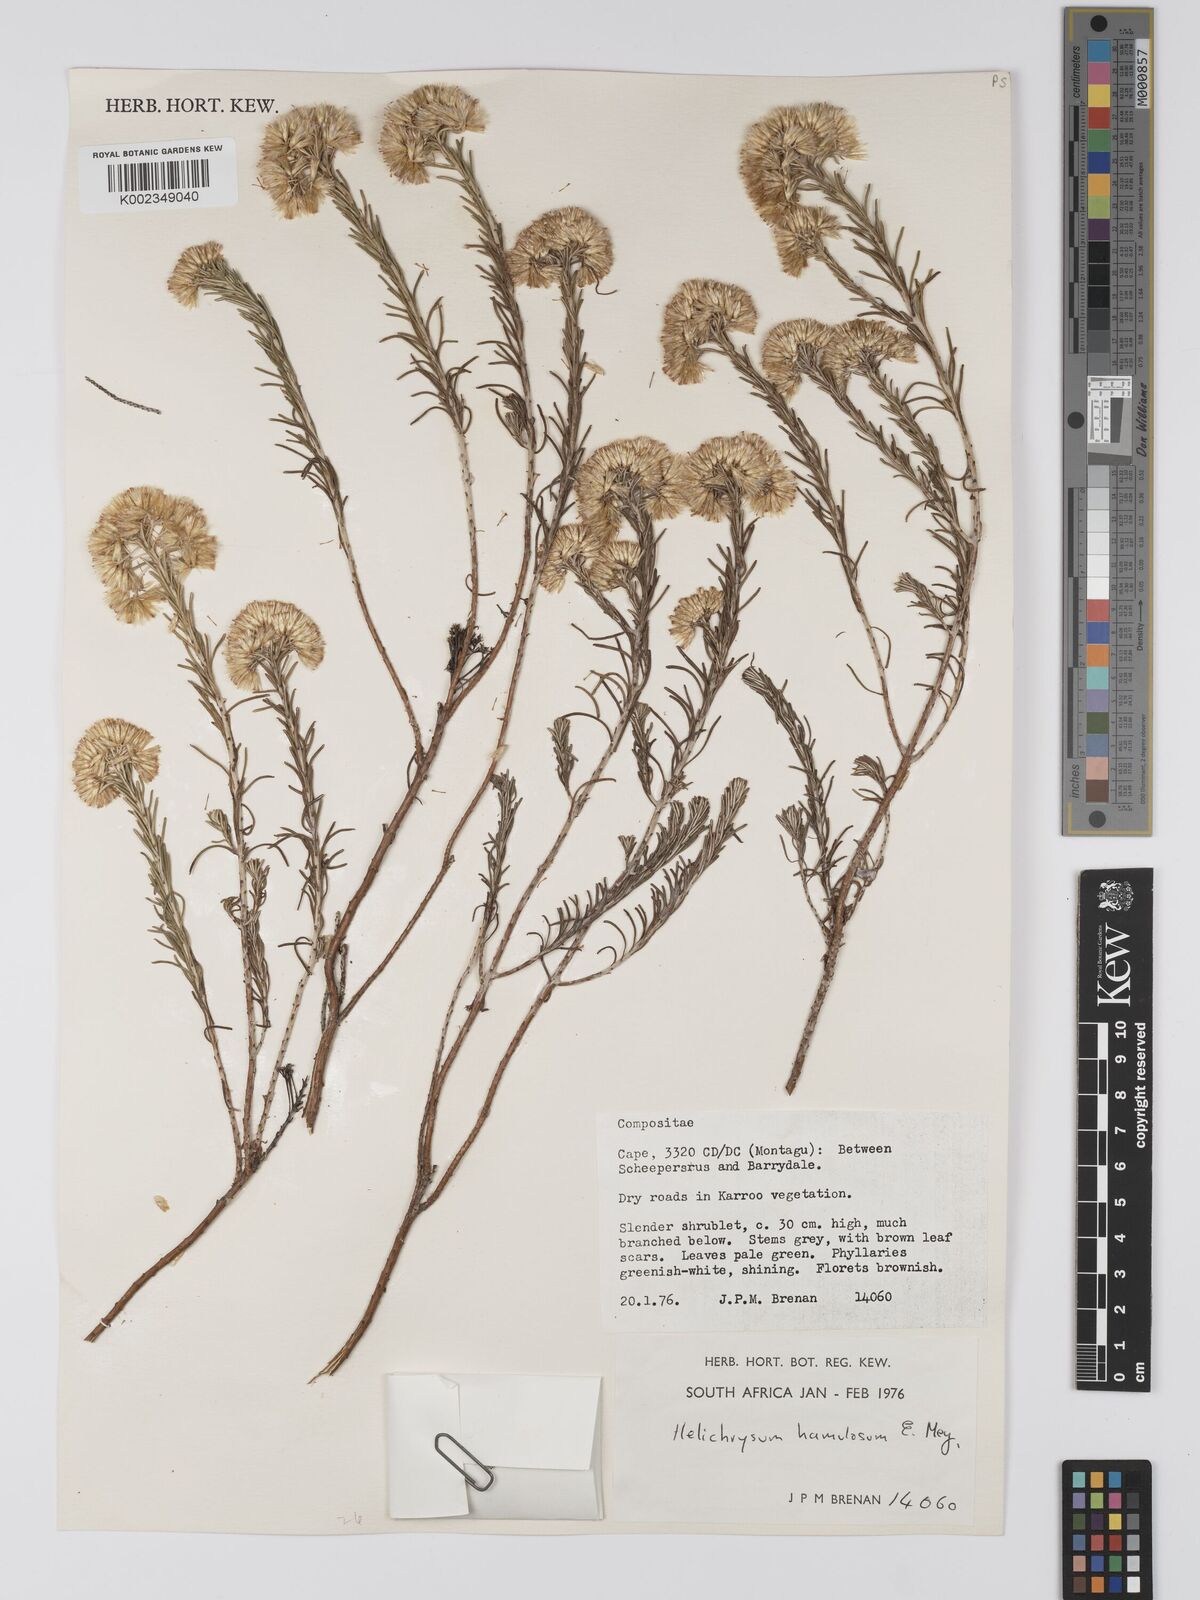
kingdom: Plantae
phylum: Tracheophyta
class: Magnoliopsida
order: Asterales
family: Asteraceae
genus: Helichrysum
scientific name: Helichrysum hamulosum
